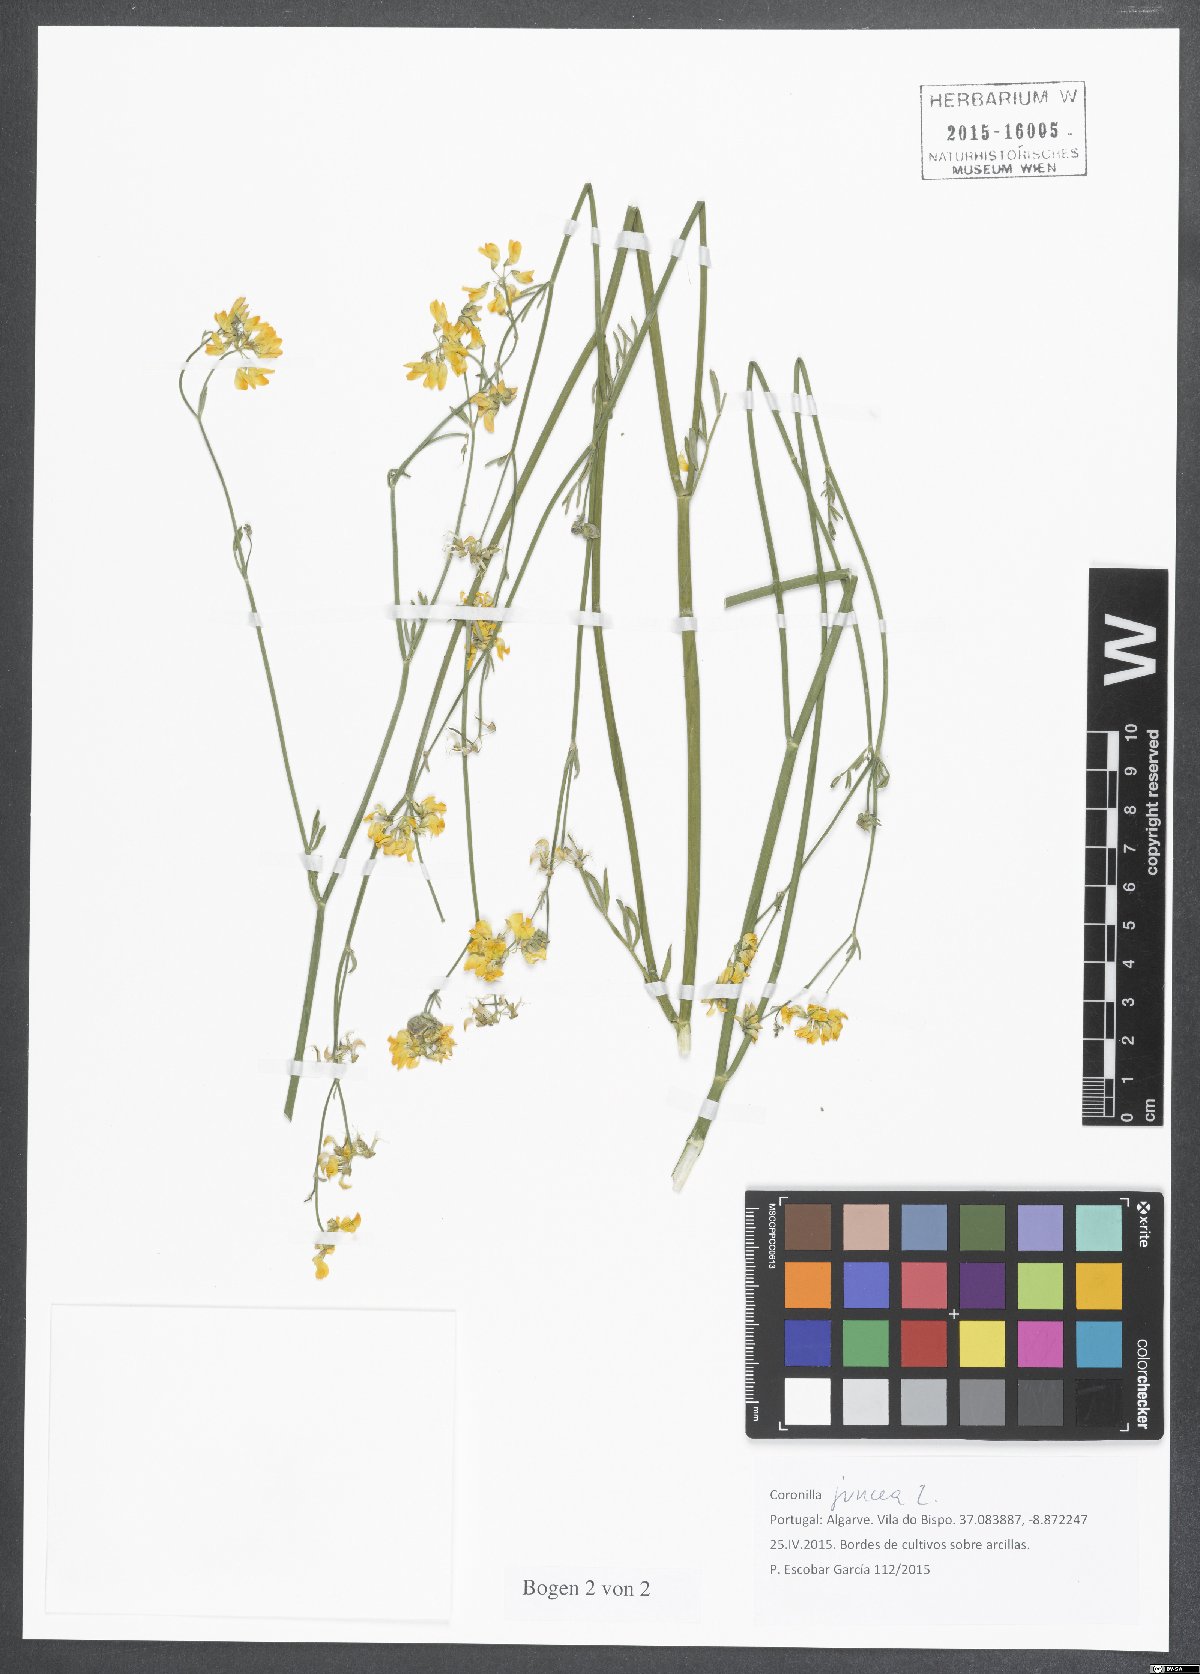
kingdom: Plantae
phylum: Tracheophyta
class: Magnoliopsida
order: Fabales
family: Fabaceae
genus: Coronilla
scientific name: Coronilla juncea
